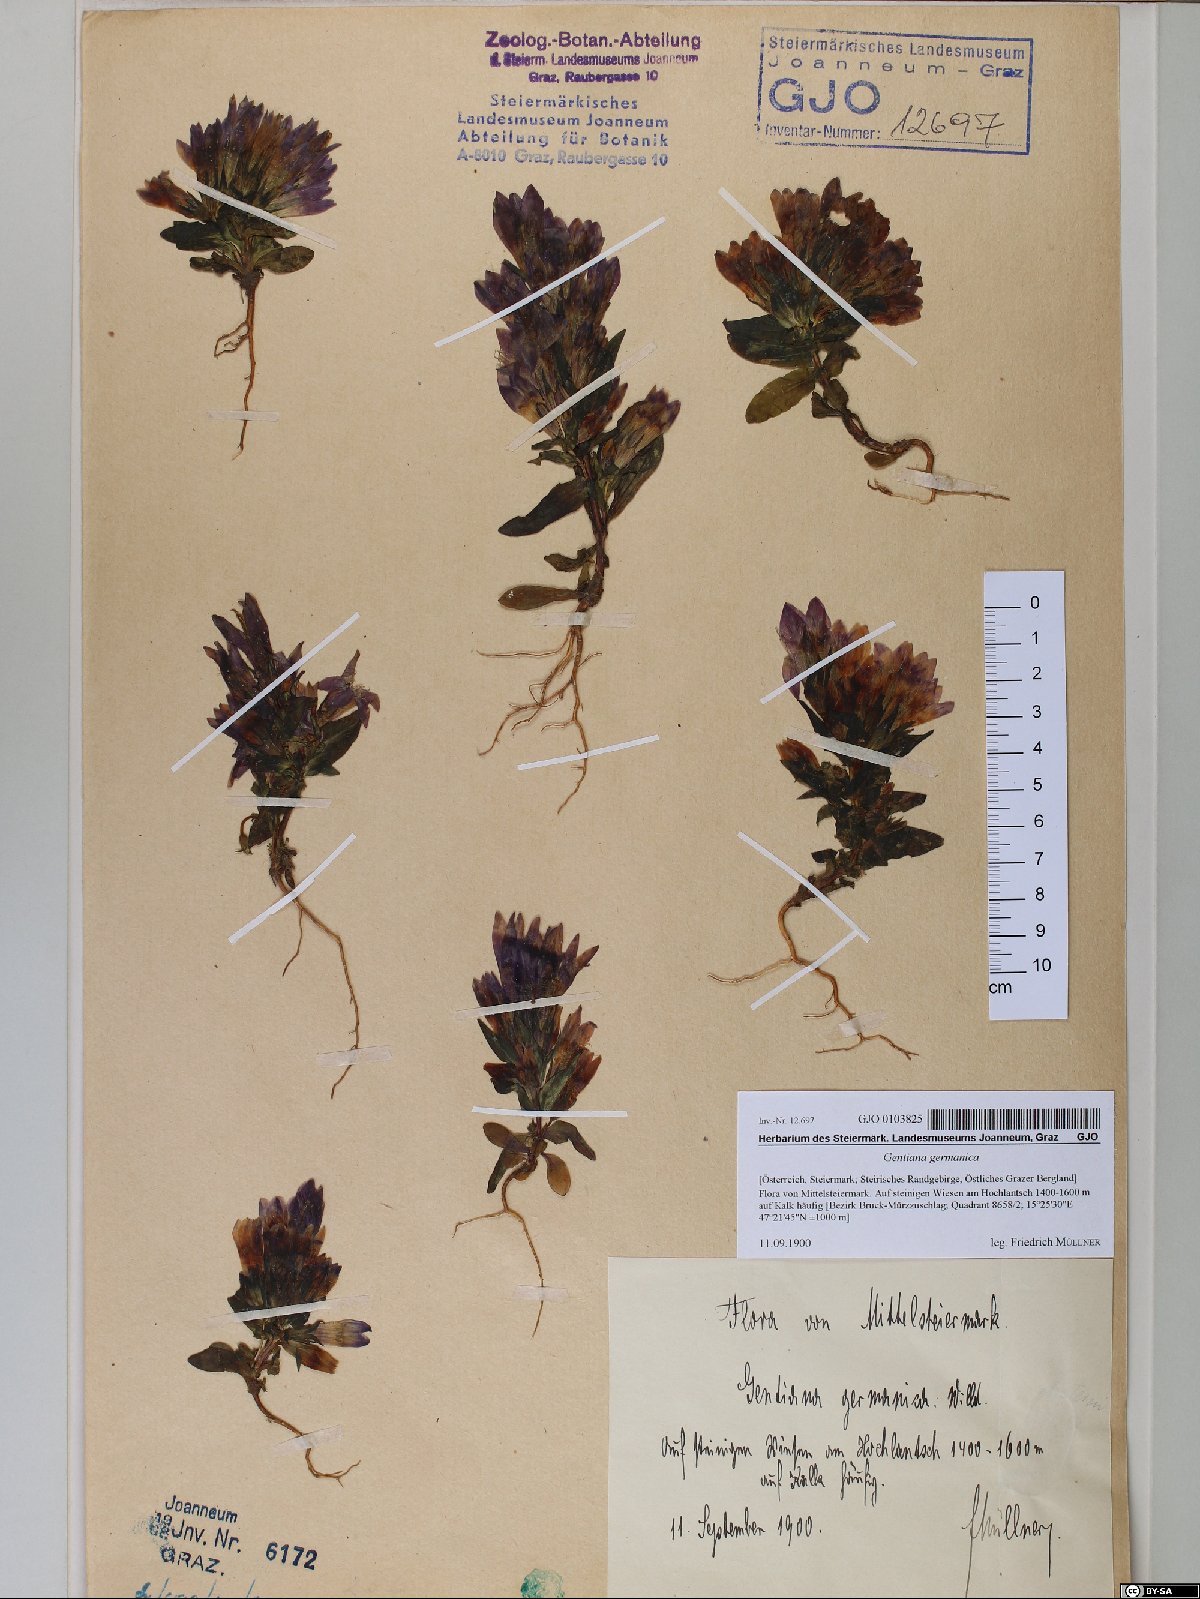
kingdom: Plantae
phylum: Tracheophyta
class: Magnoliopsida
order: Gentianales
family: Gentianaceae
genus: Gentianella
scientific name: Gentianella germanica
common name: Chiltern-gentian
